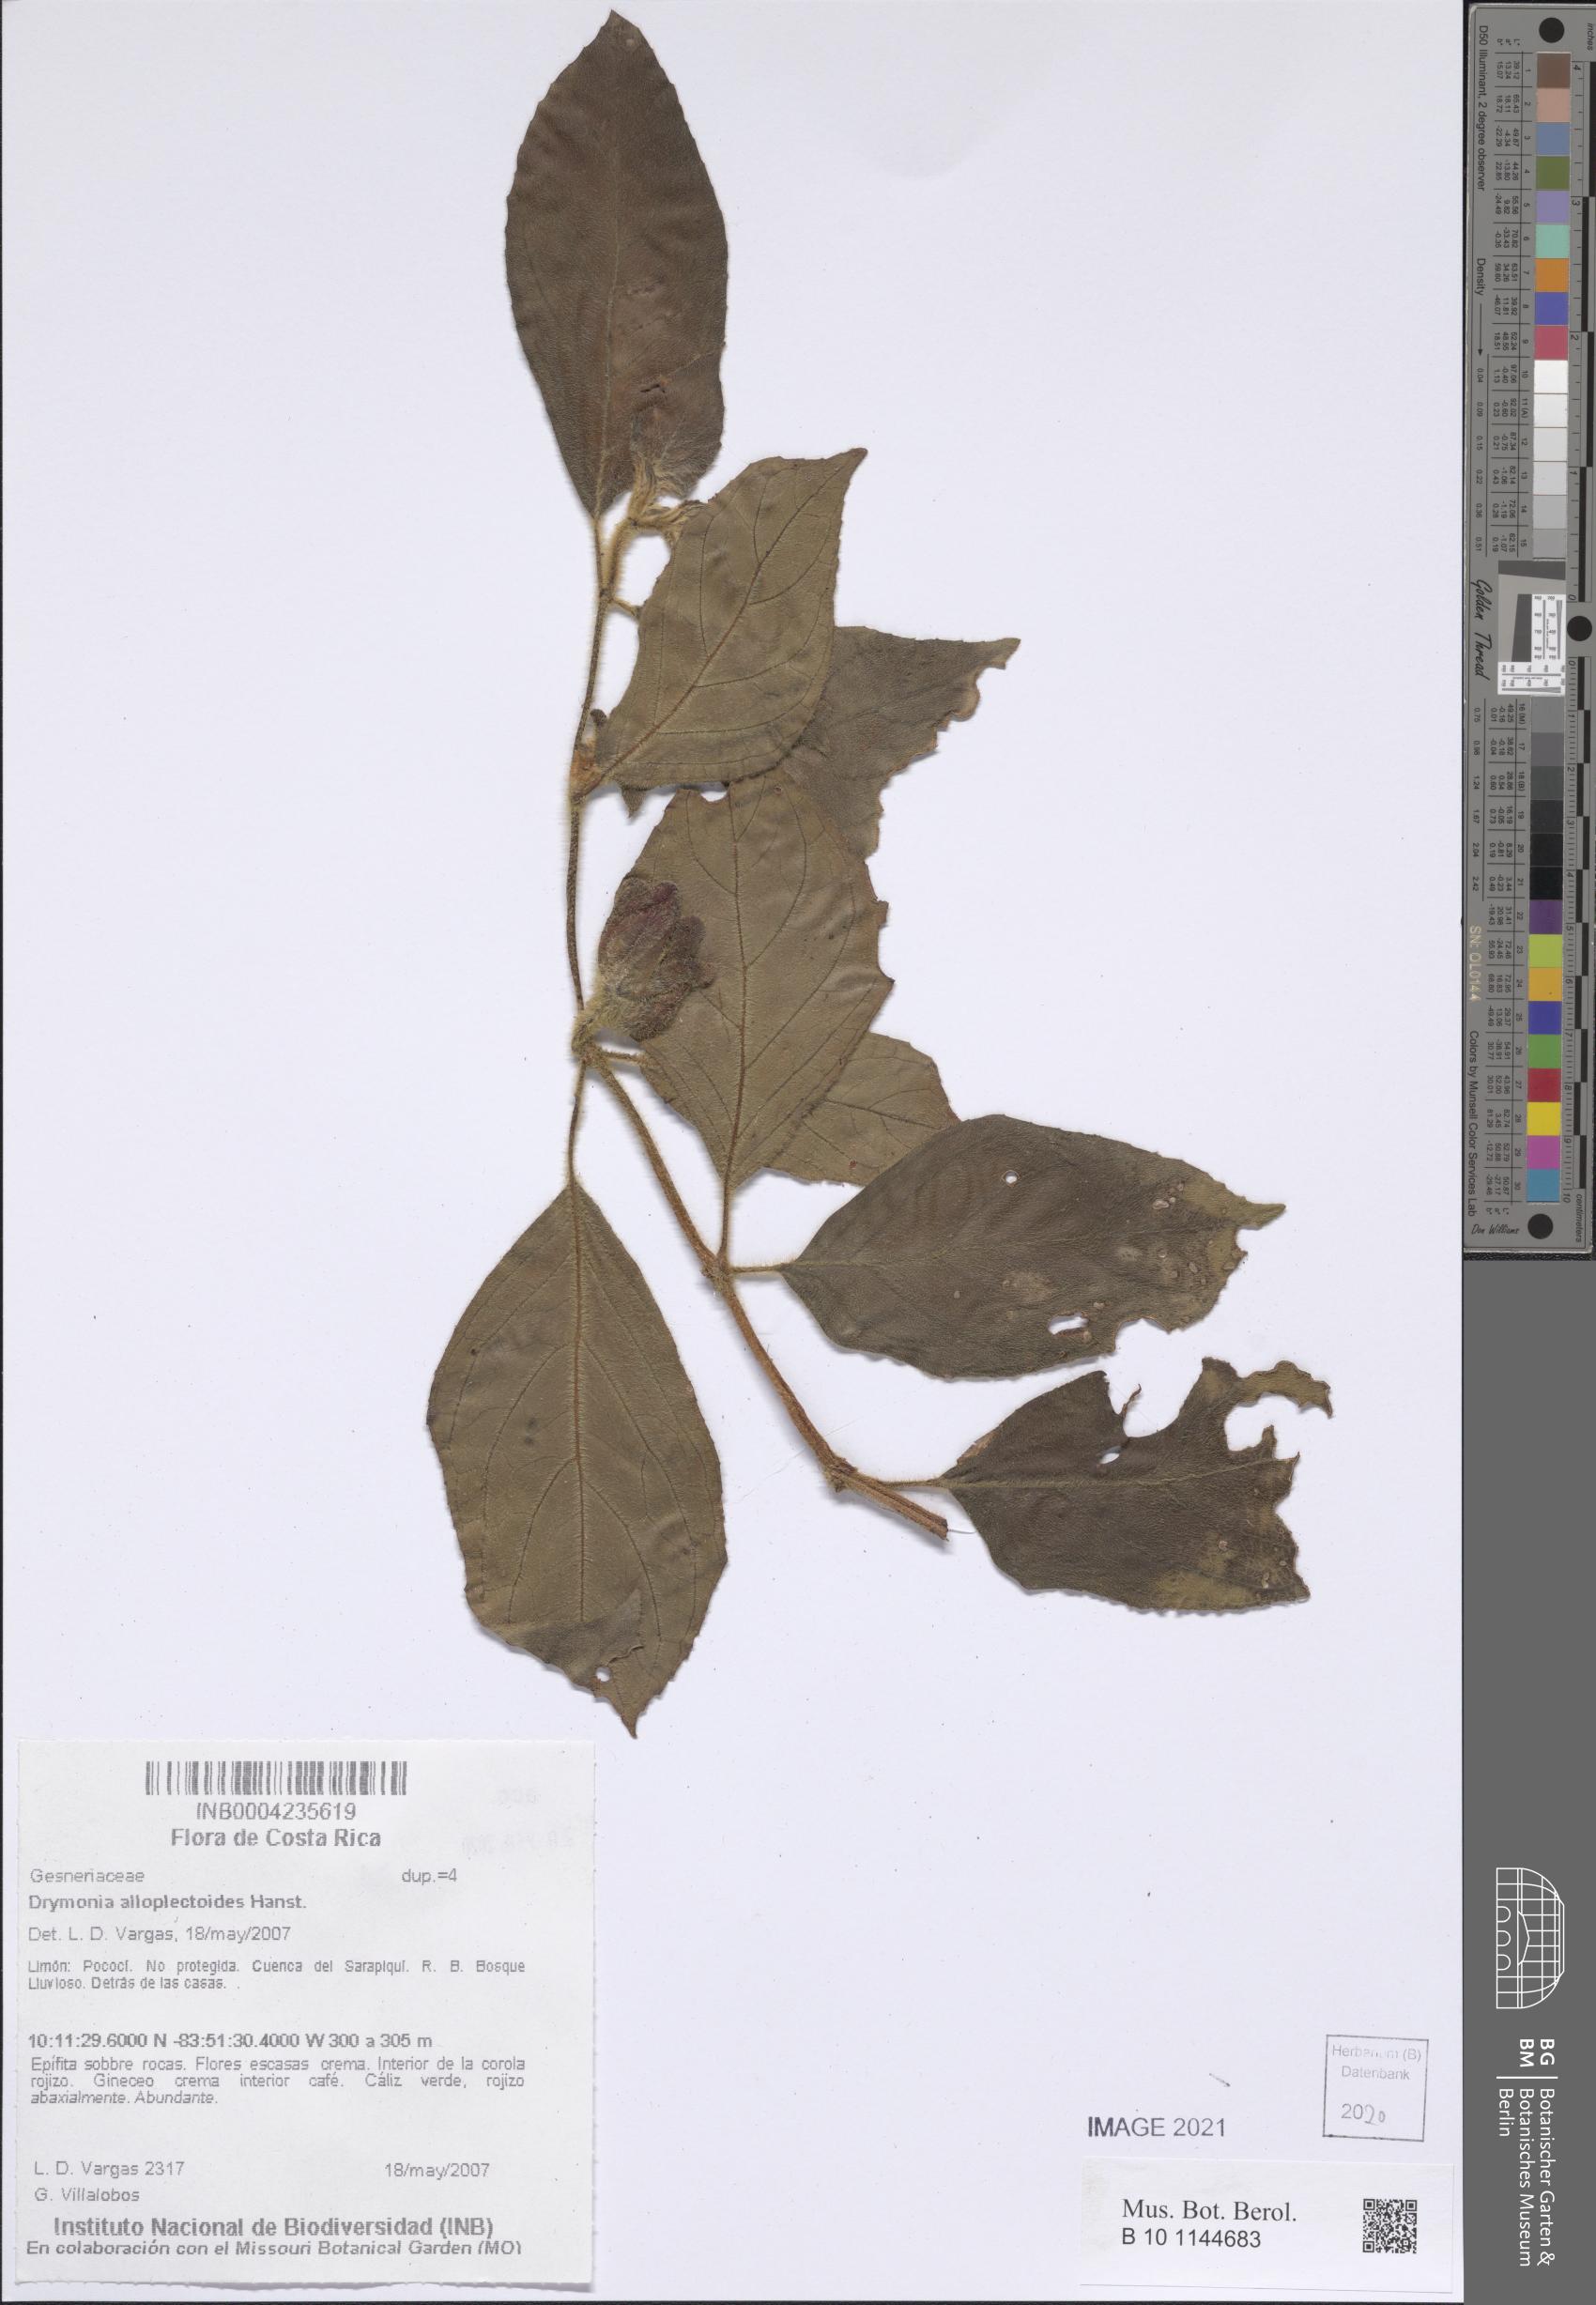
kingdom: Plantae
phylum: Tracheophyta
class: Magnoliopsida
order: Lamiales
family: Gesneriaceae
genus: Drymonia
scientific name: Drymonia alloplectoides
